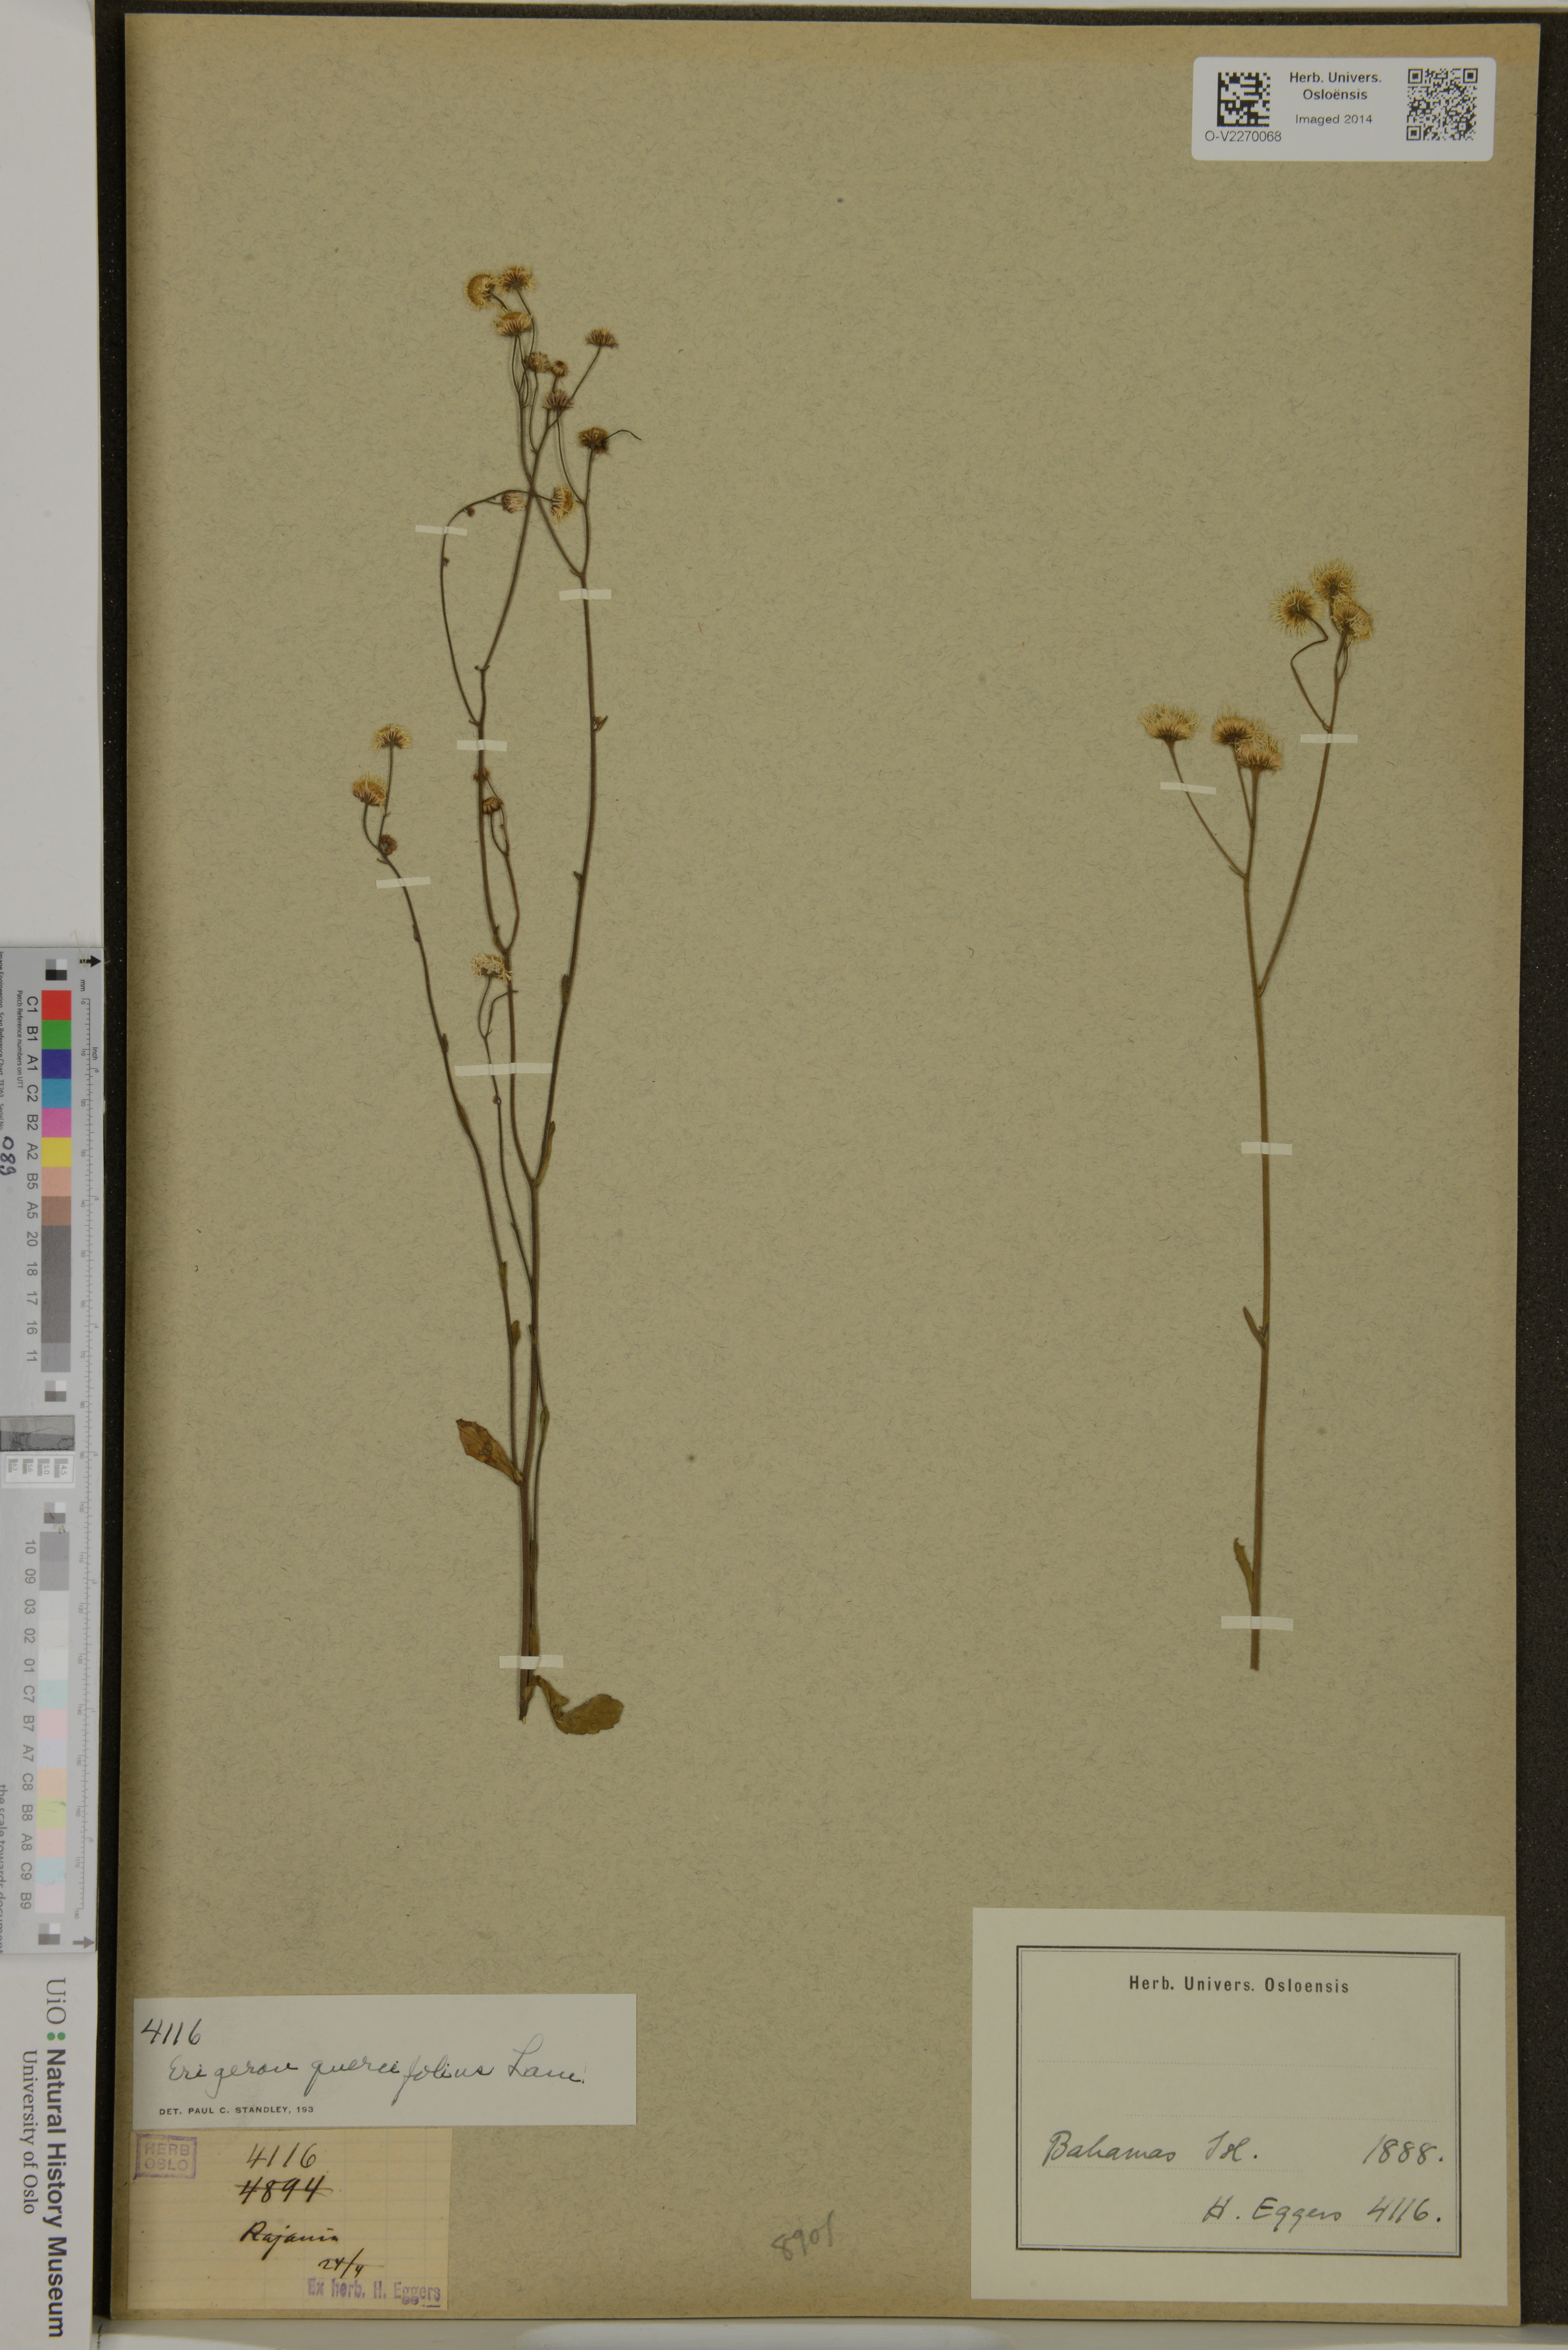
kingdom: Plantae
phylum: Tracheophyta
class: Magnoliopsida
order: Asterales
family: Asteraceae
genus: Erigeron
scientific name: Erigeron quercifolius
